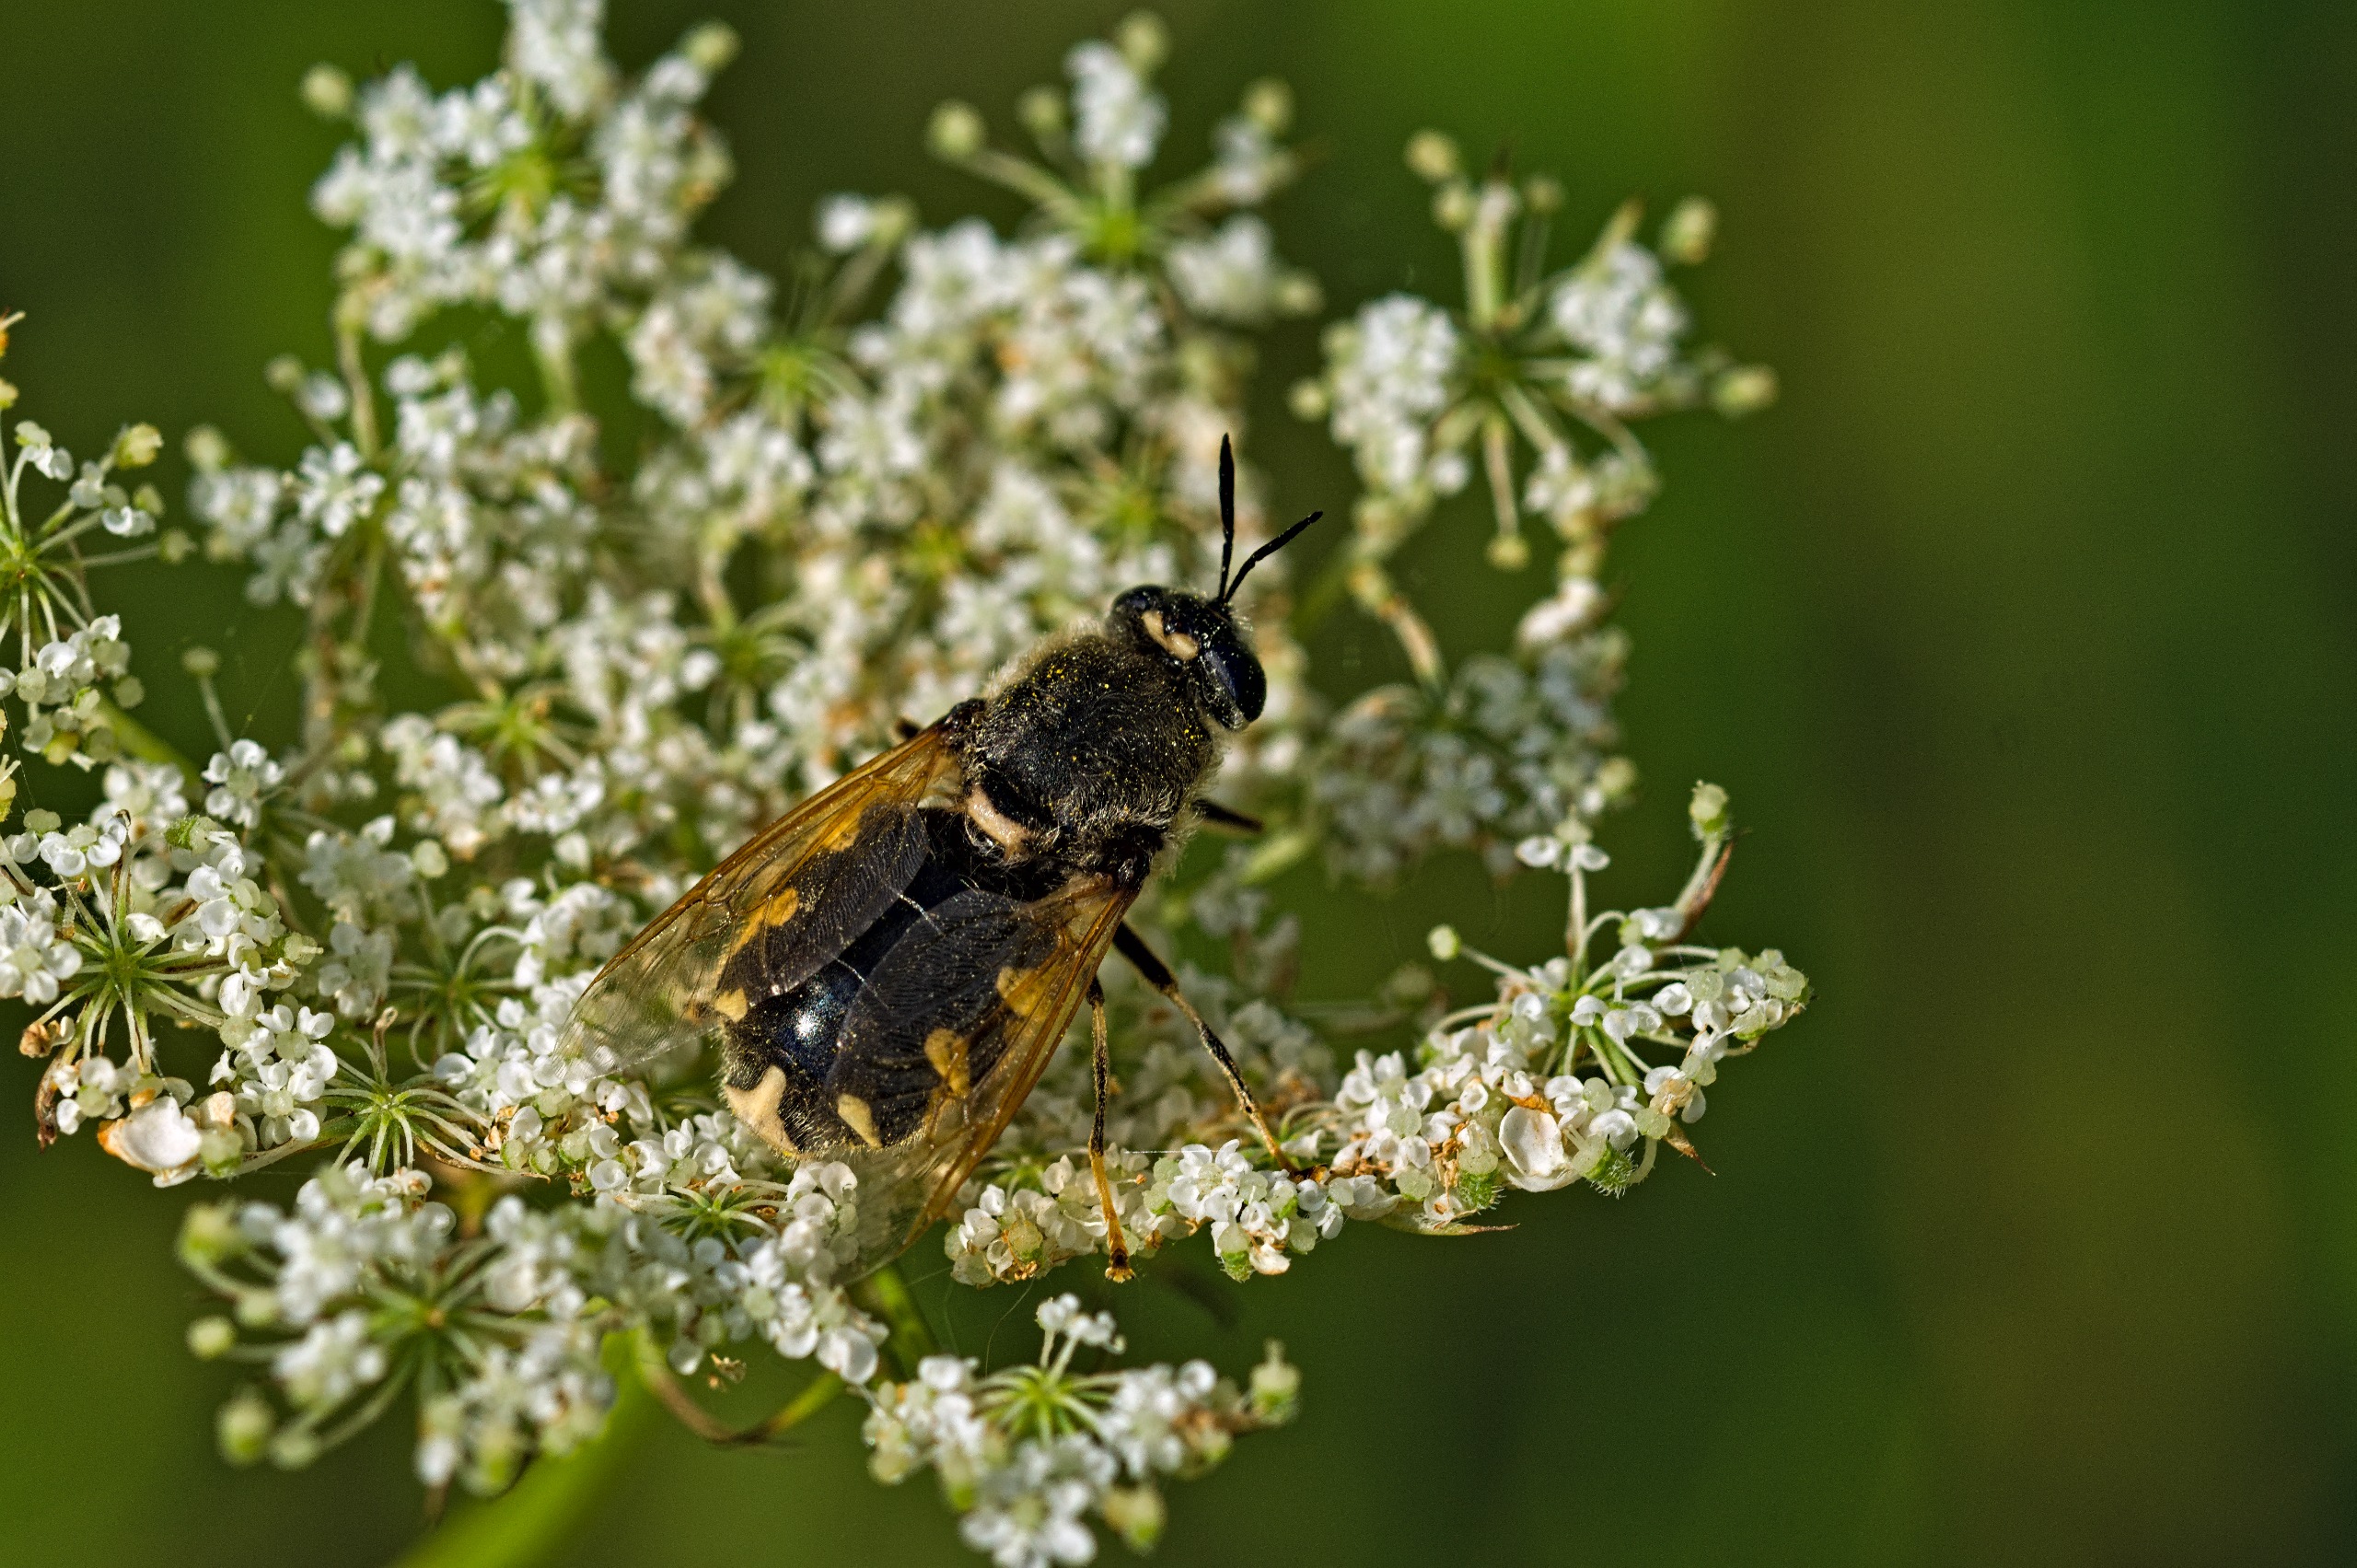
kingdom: Animalia
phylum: Arthropoda
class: Insecta
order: Diptera
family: Stratiomyidae
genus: Stratiomys
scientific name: Stratiomys singularior
